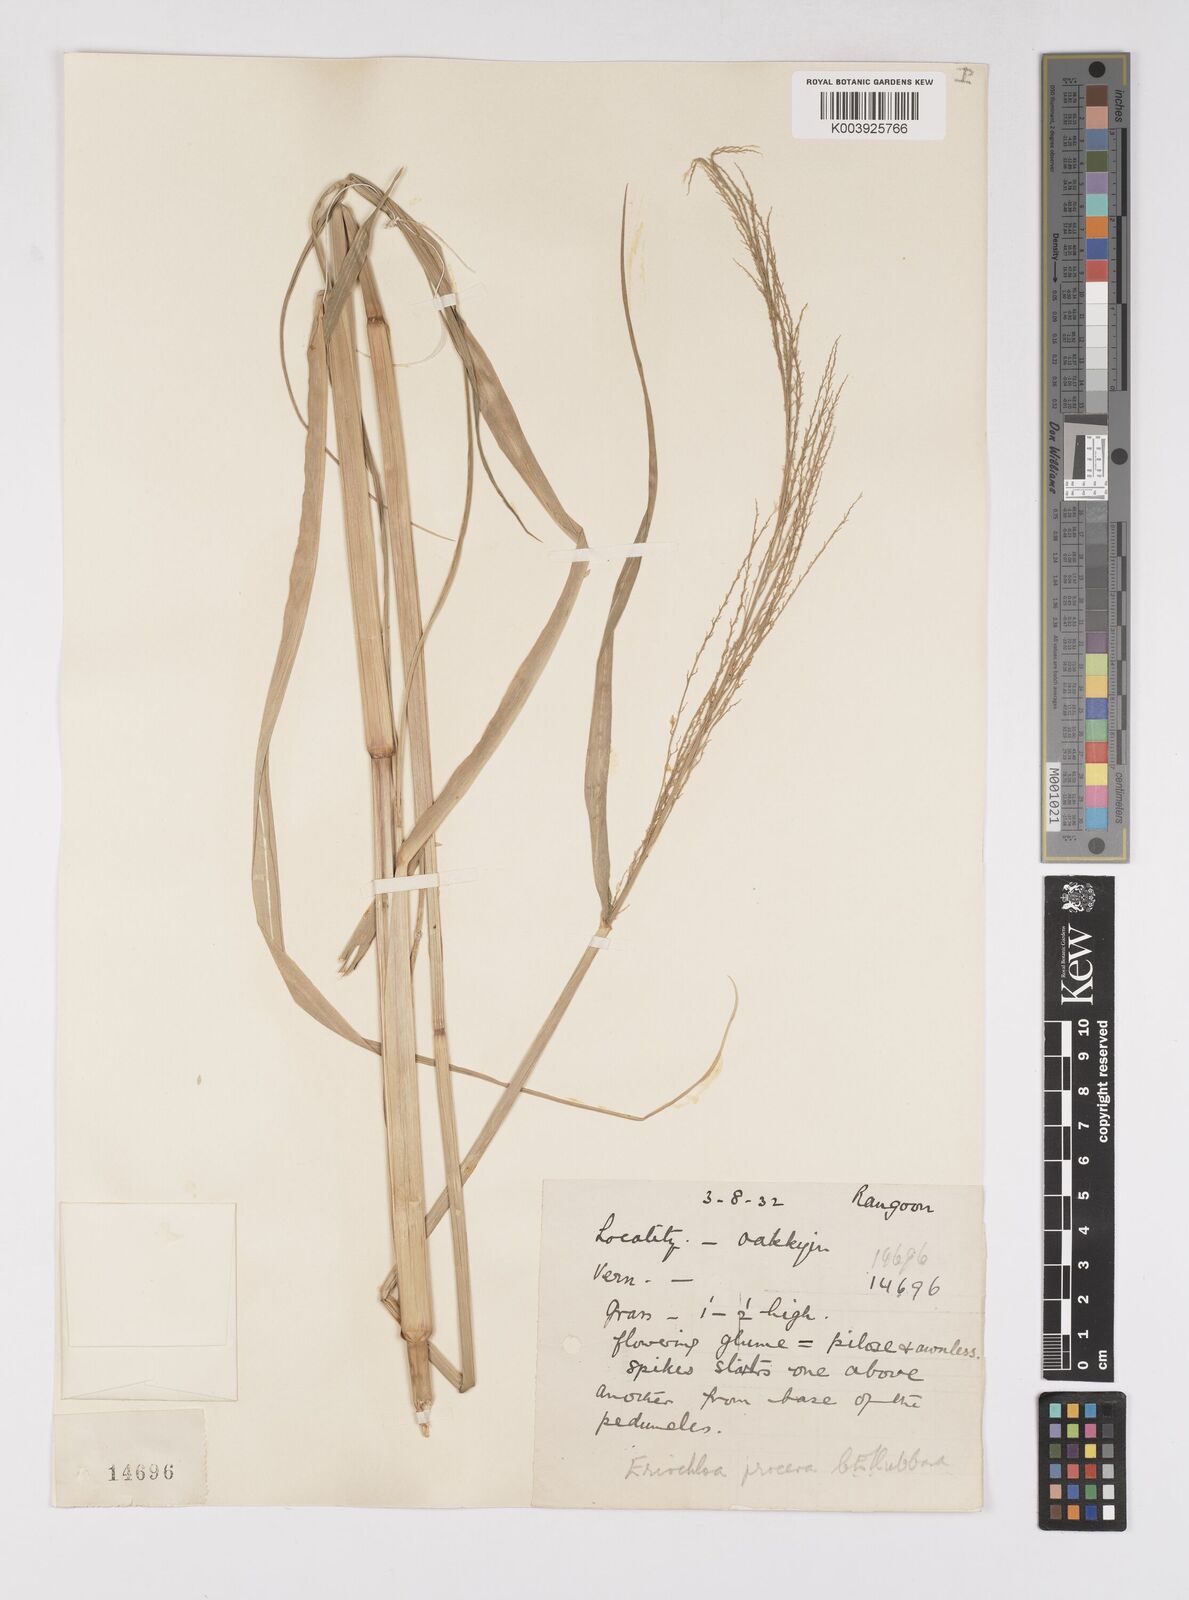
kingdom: Plantae
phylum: Tracheophyta
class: Liliopsida
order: Poales
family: Poaceae
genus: Eriochloa
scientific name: Eriochloa procera
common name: Spring grass
